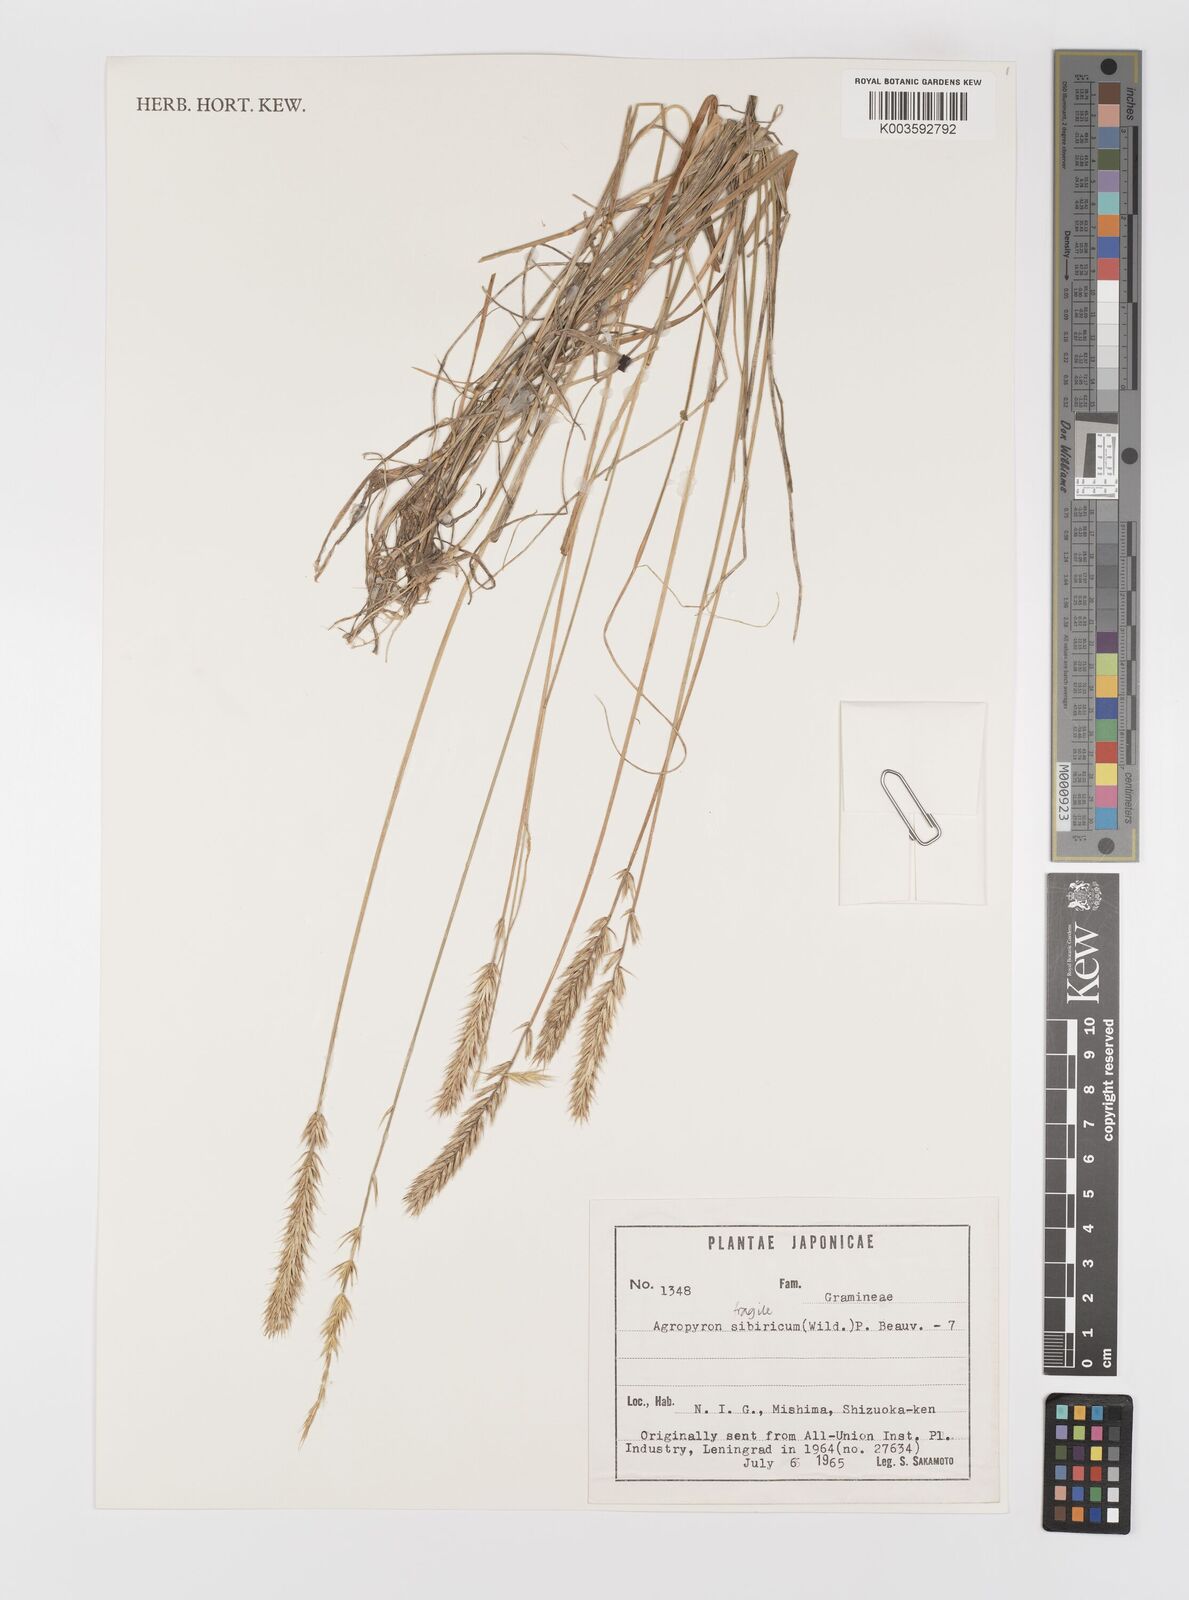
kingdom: Plantae
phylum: Tracheophyta
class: Liliopsida
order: Poales
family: Poaceae
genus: Agropyron
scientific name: Agropyron fragile
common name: Siberian wheatgrass
